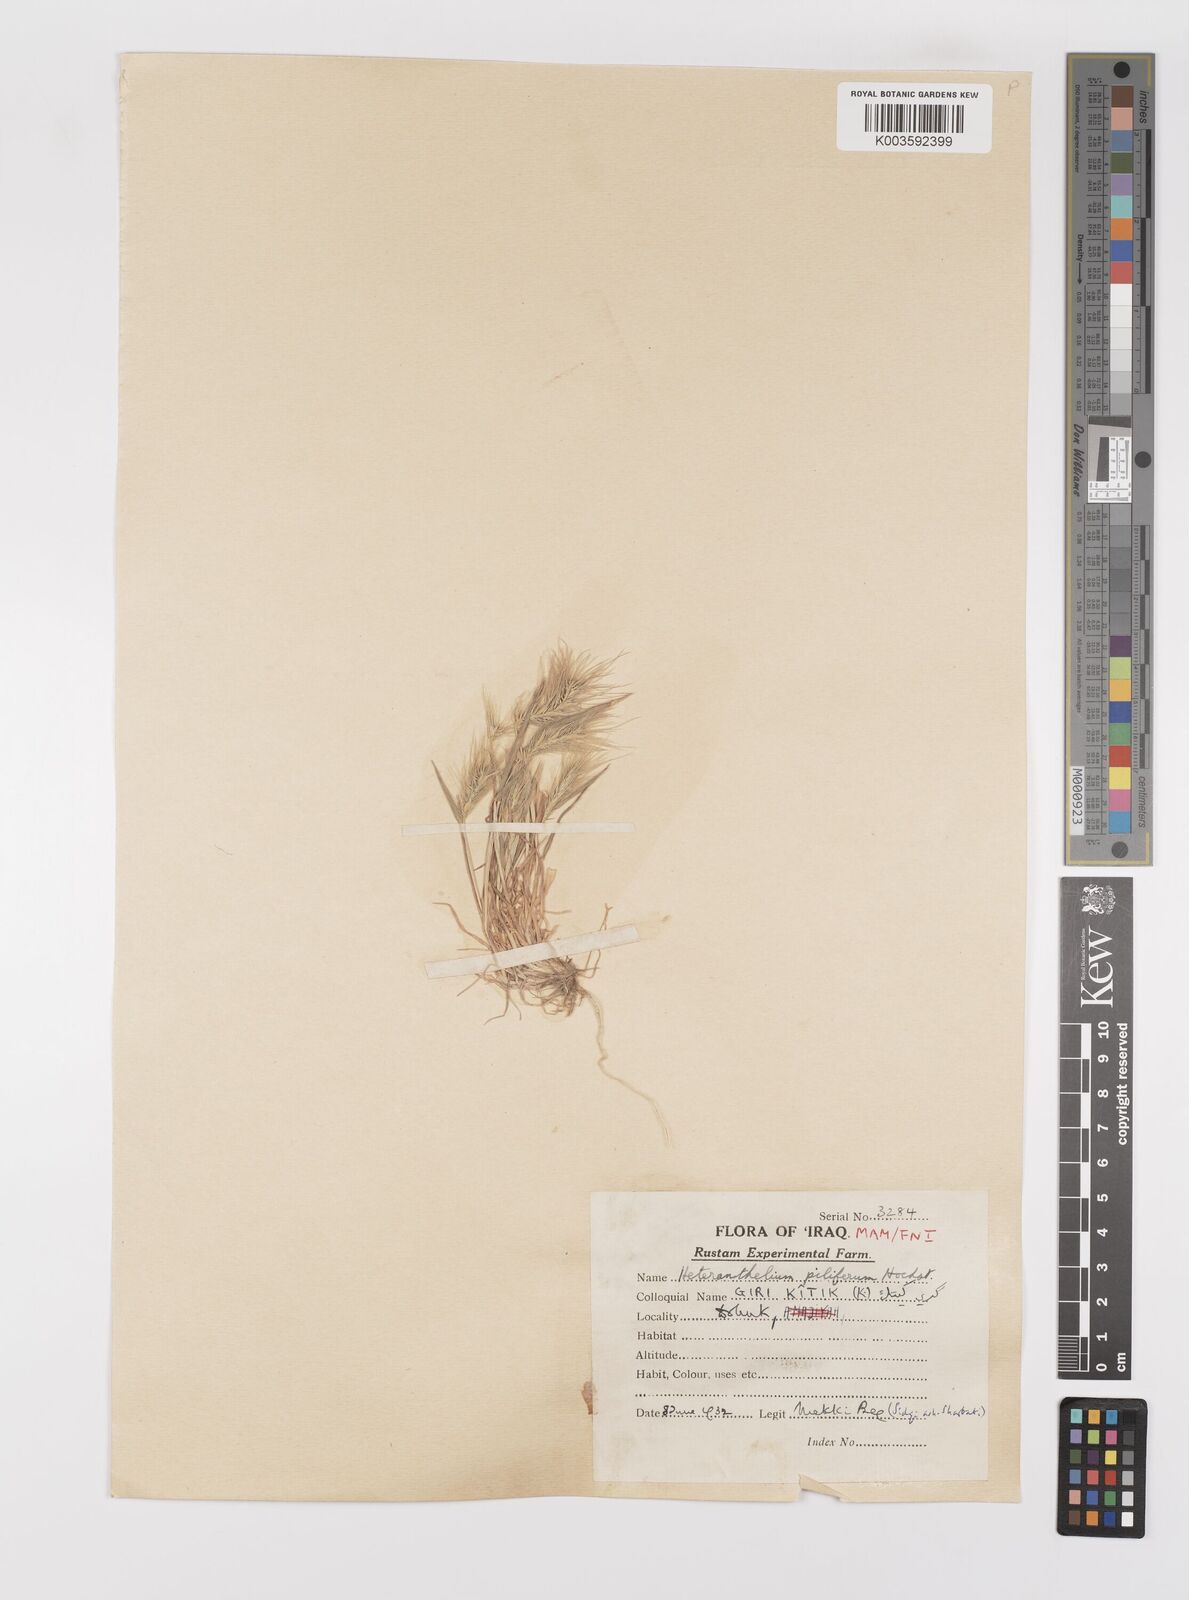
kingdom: Plantae
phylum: Tracheophyta
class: Liliopsida
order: Poales
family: Poaceae
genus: Heteranthelium
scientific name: Heteranthelium piliferum
